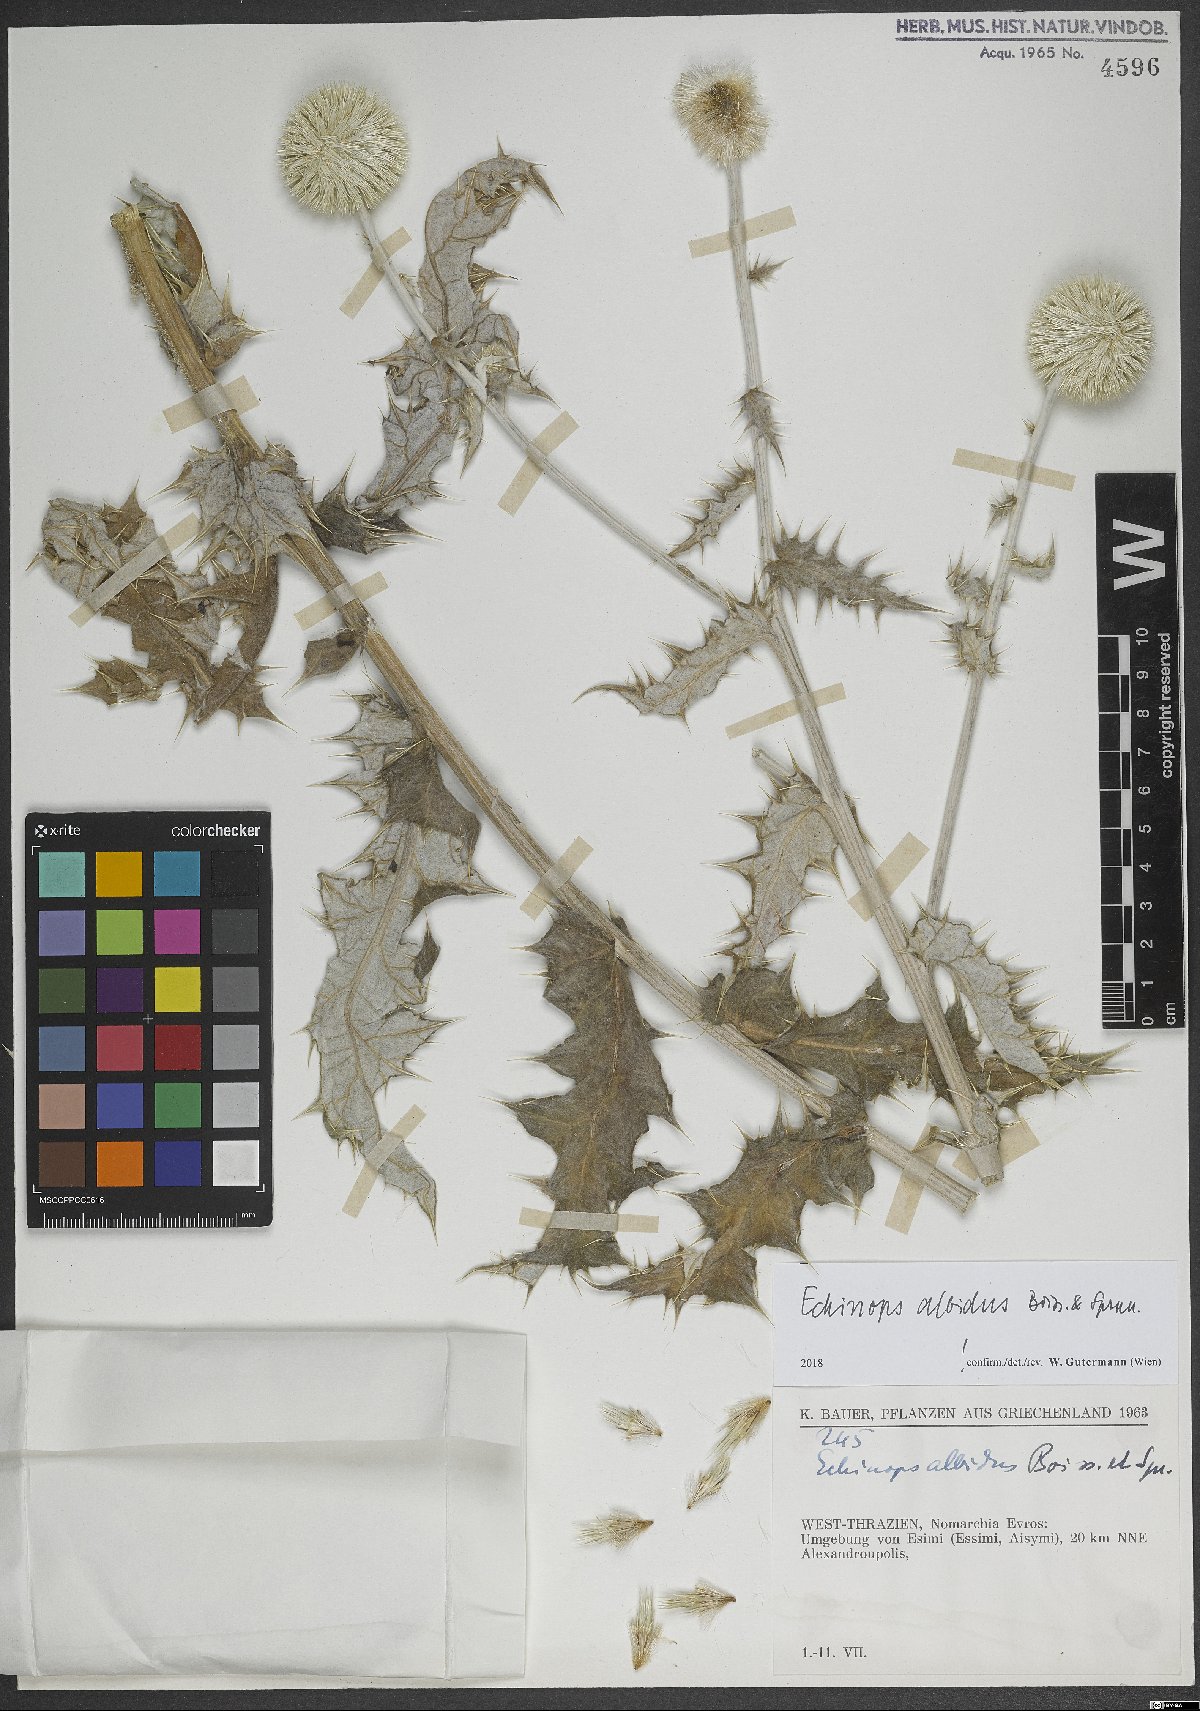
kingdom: Plantae
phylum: Tracheophyta
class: Magnoliopsida
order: Asterales
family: Asteraceae
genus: Echinops
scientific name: Echinops sphaerocephalus
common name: Glandular globe-thistle
